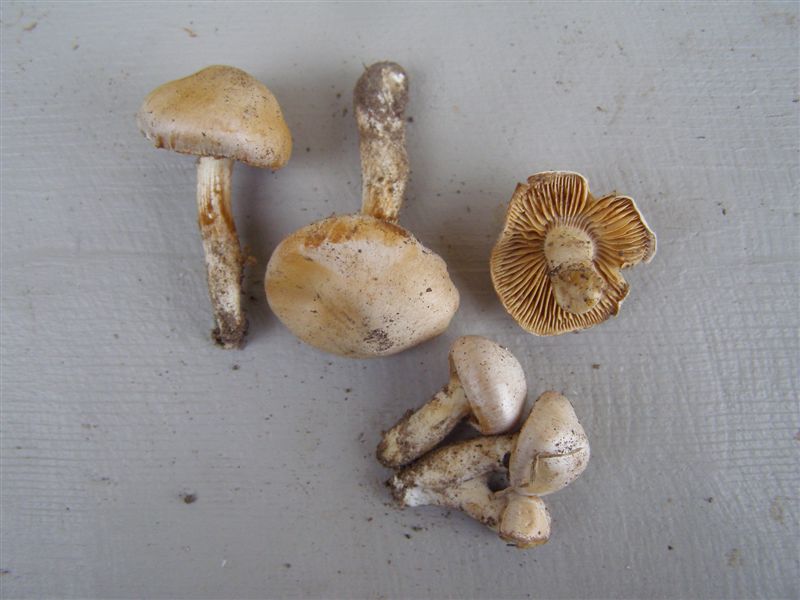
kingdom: Fungi
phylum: Basidiomycota
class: Agaricomycetes
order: Agaricales
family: Cortinariaceae
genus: Thaxterogaster
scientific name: Thaxterogaster barbatus
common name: elfenbens-slørhat
